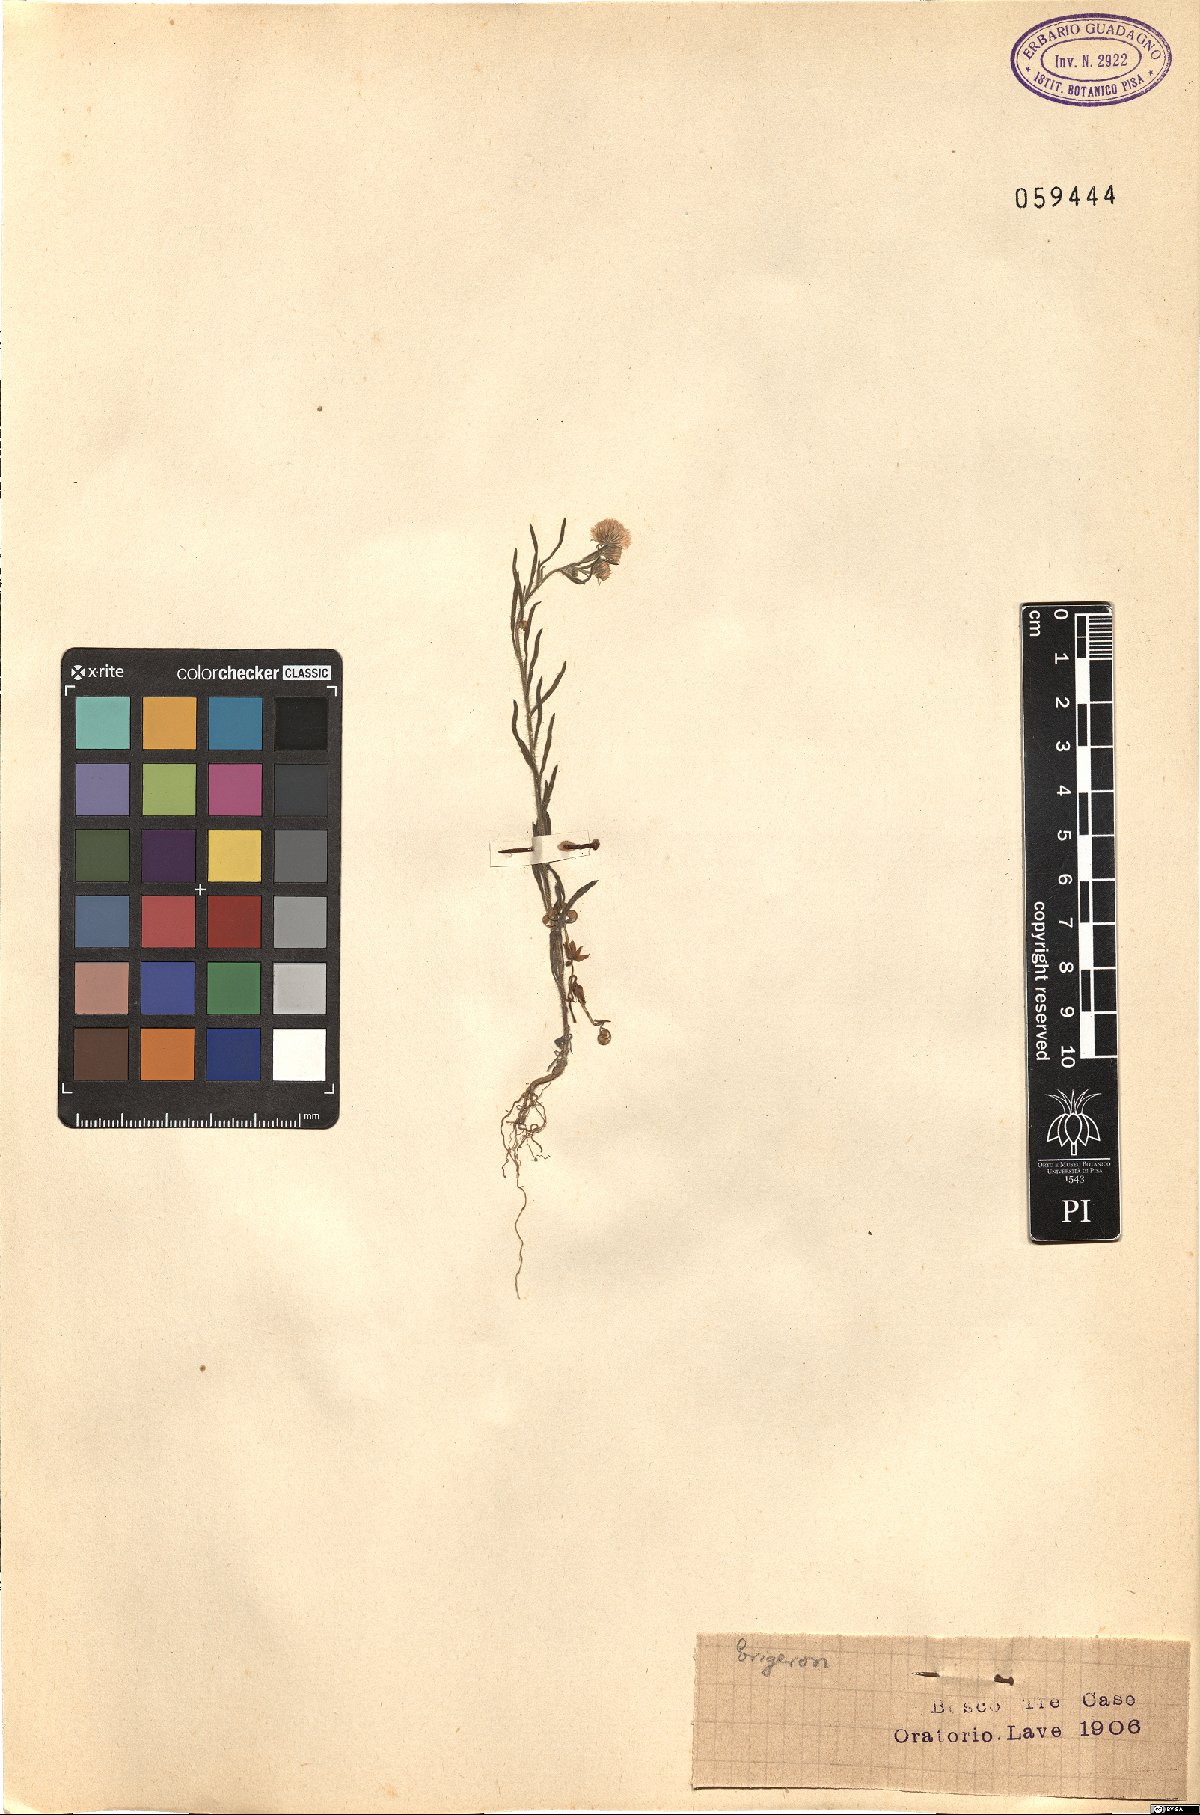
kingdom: Plantae
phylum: Tracheophyta
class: Magnoliopsida
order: Asterales
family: Asteraceae
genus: Erigeron
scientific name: Erigeron
